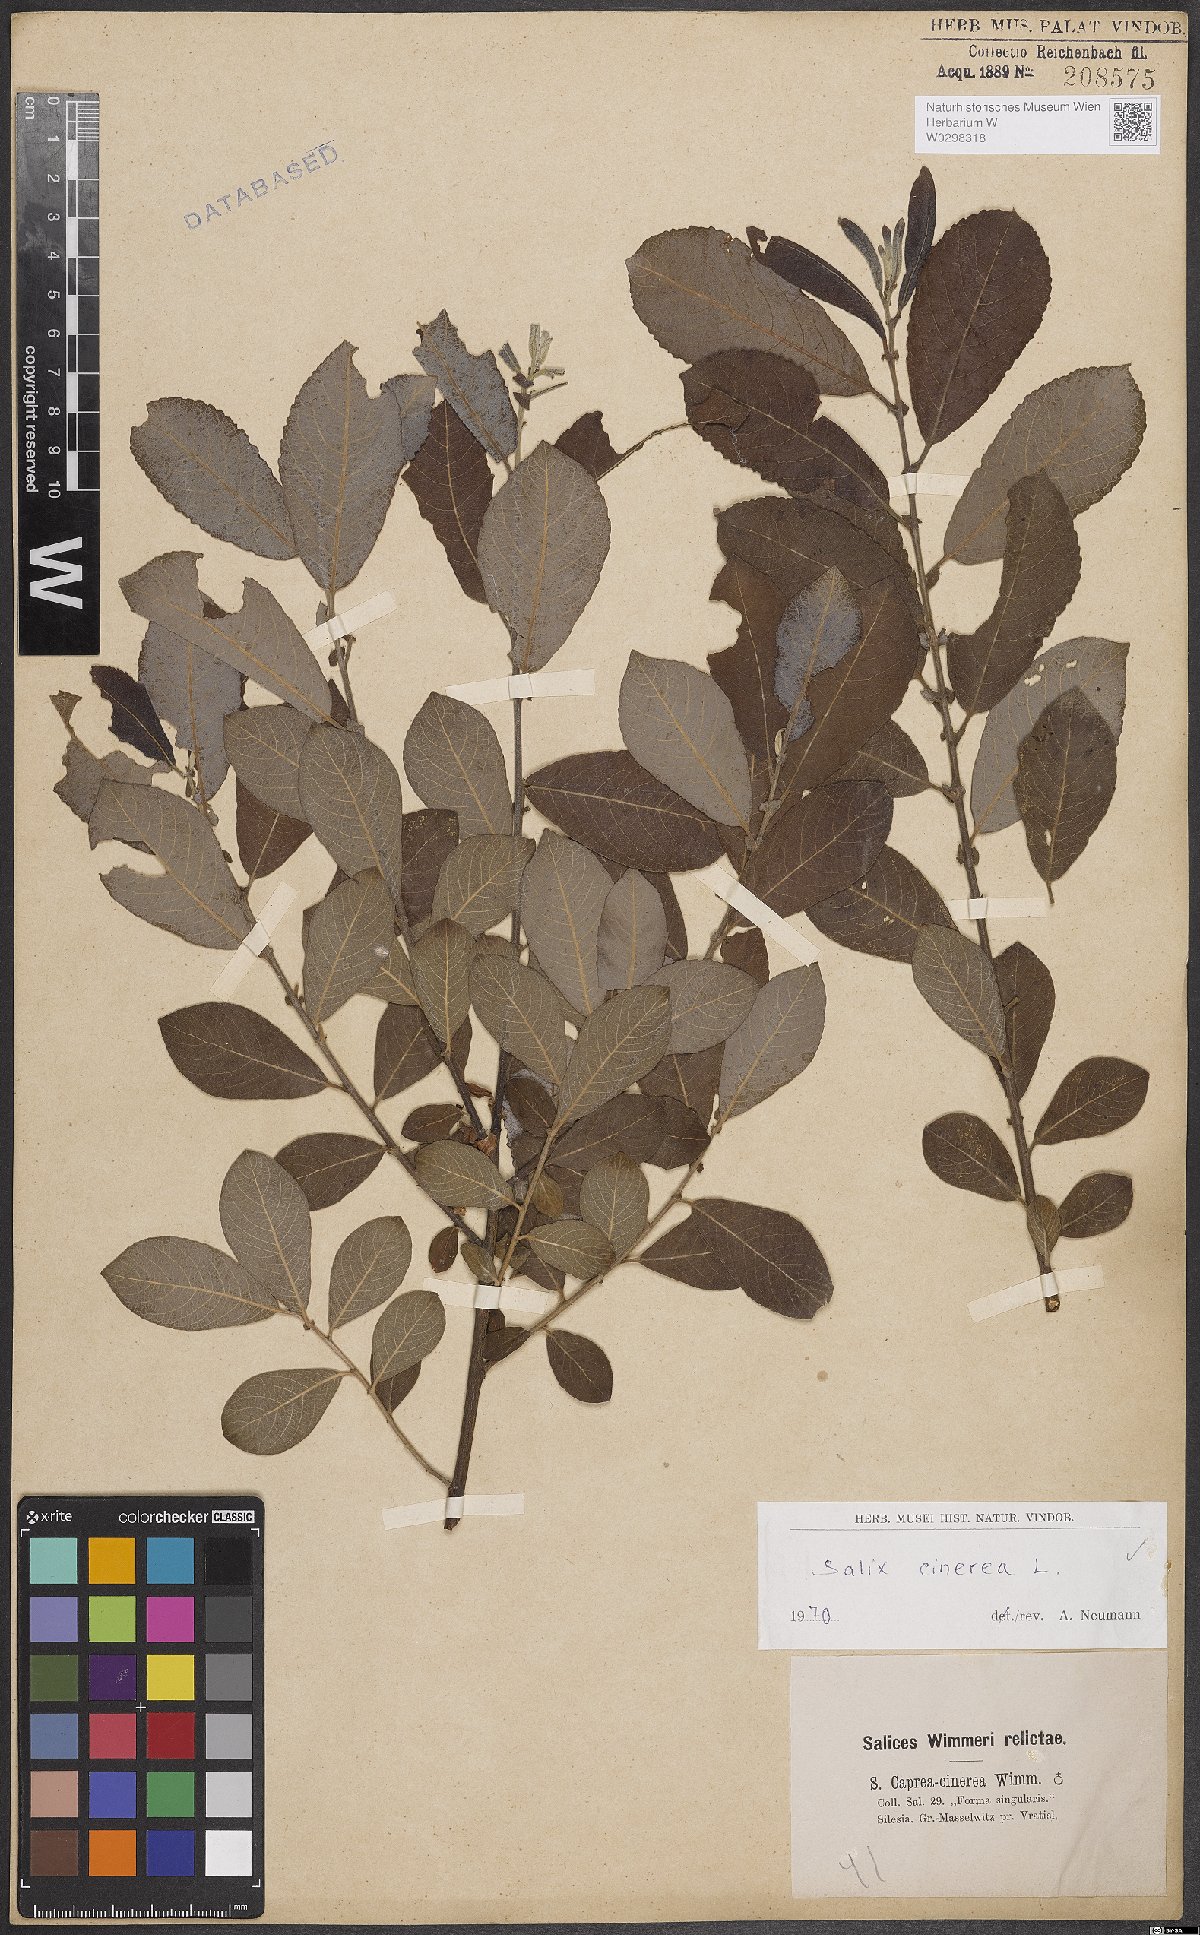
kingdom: Plantae
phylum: Tracheophyta
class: Magnoliopsida
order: Malpighiales
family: Salicaceae
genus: Salix
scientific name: Salix cinerea
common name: Common sallow
